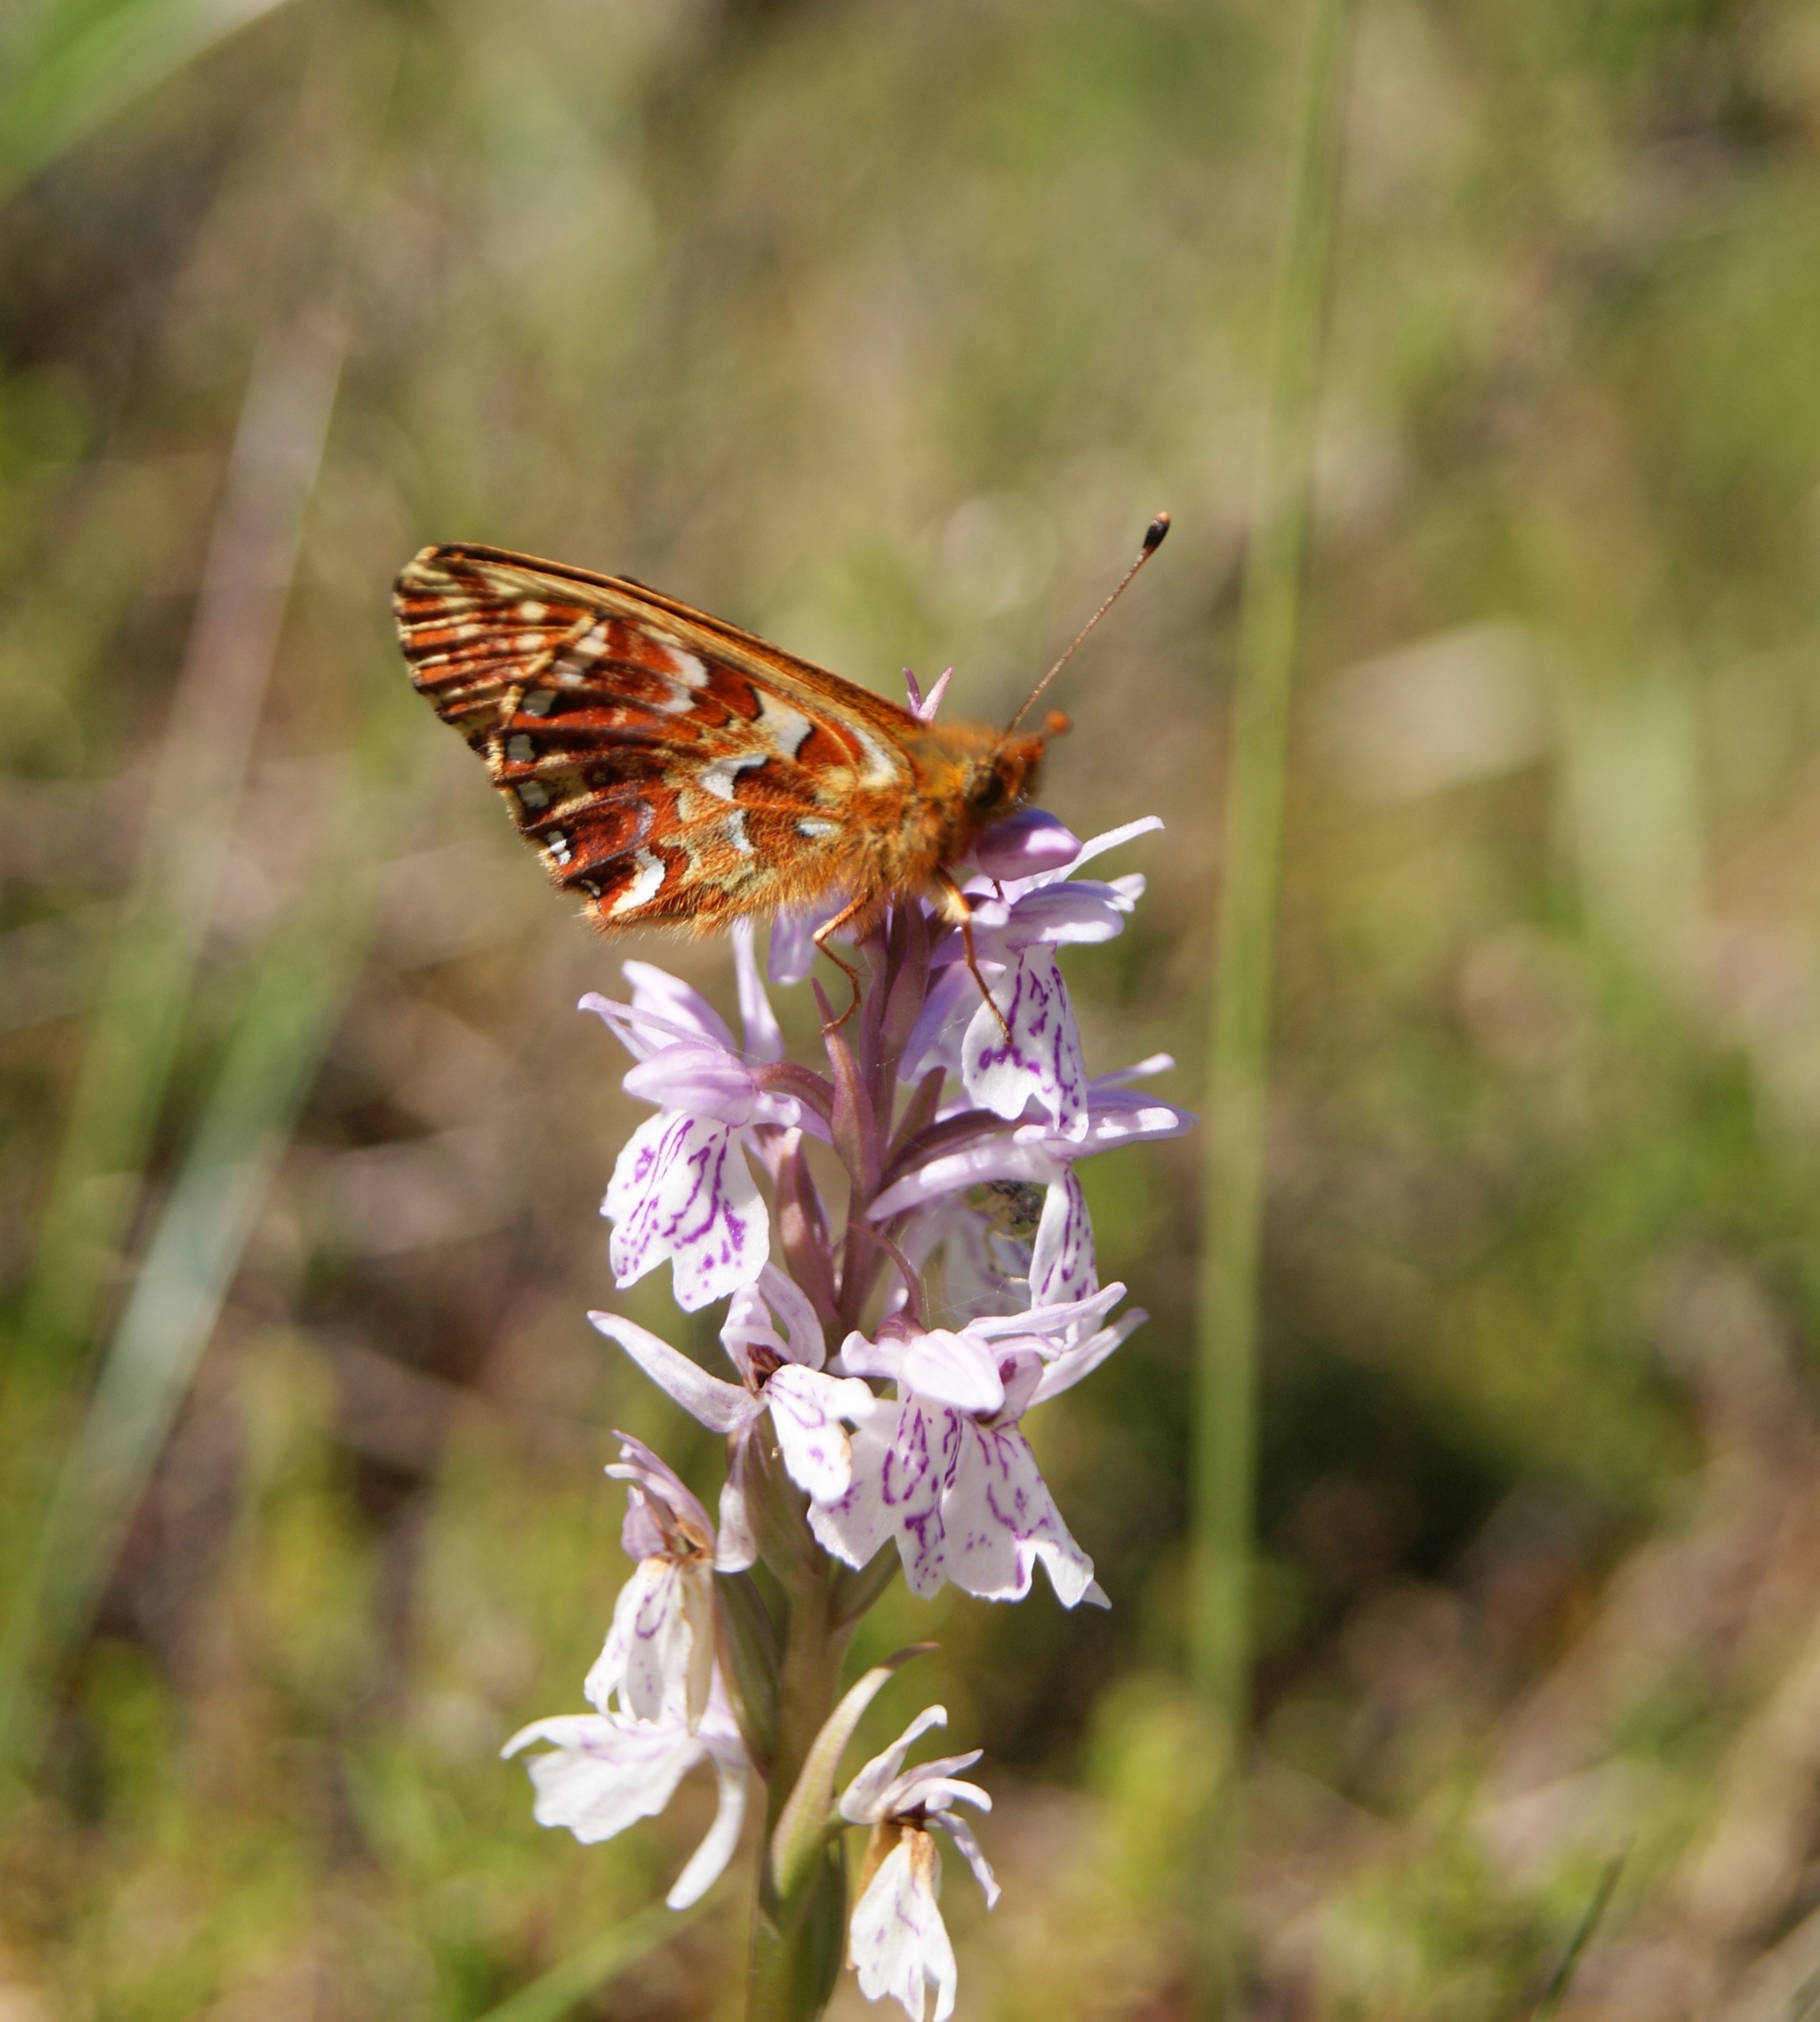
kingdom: Animalia
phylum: Arthropoda
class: Insecta
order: Lepidoptera
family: Nymphalidae
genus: Boloria
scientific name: Boloria aquilonaris
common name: Moseperlemorsommerfugl
